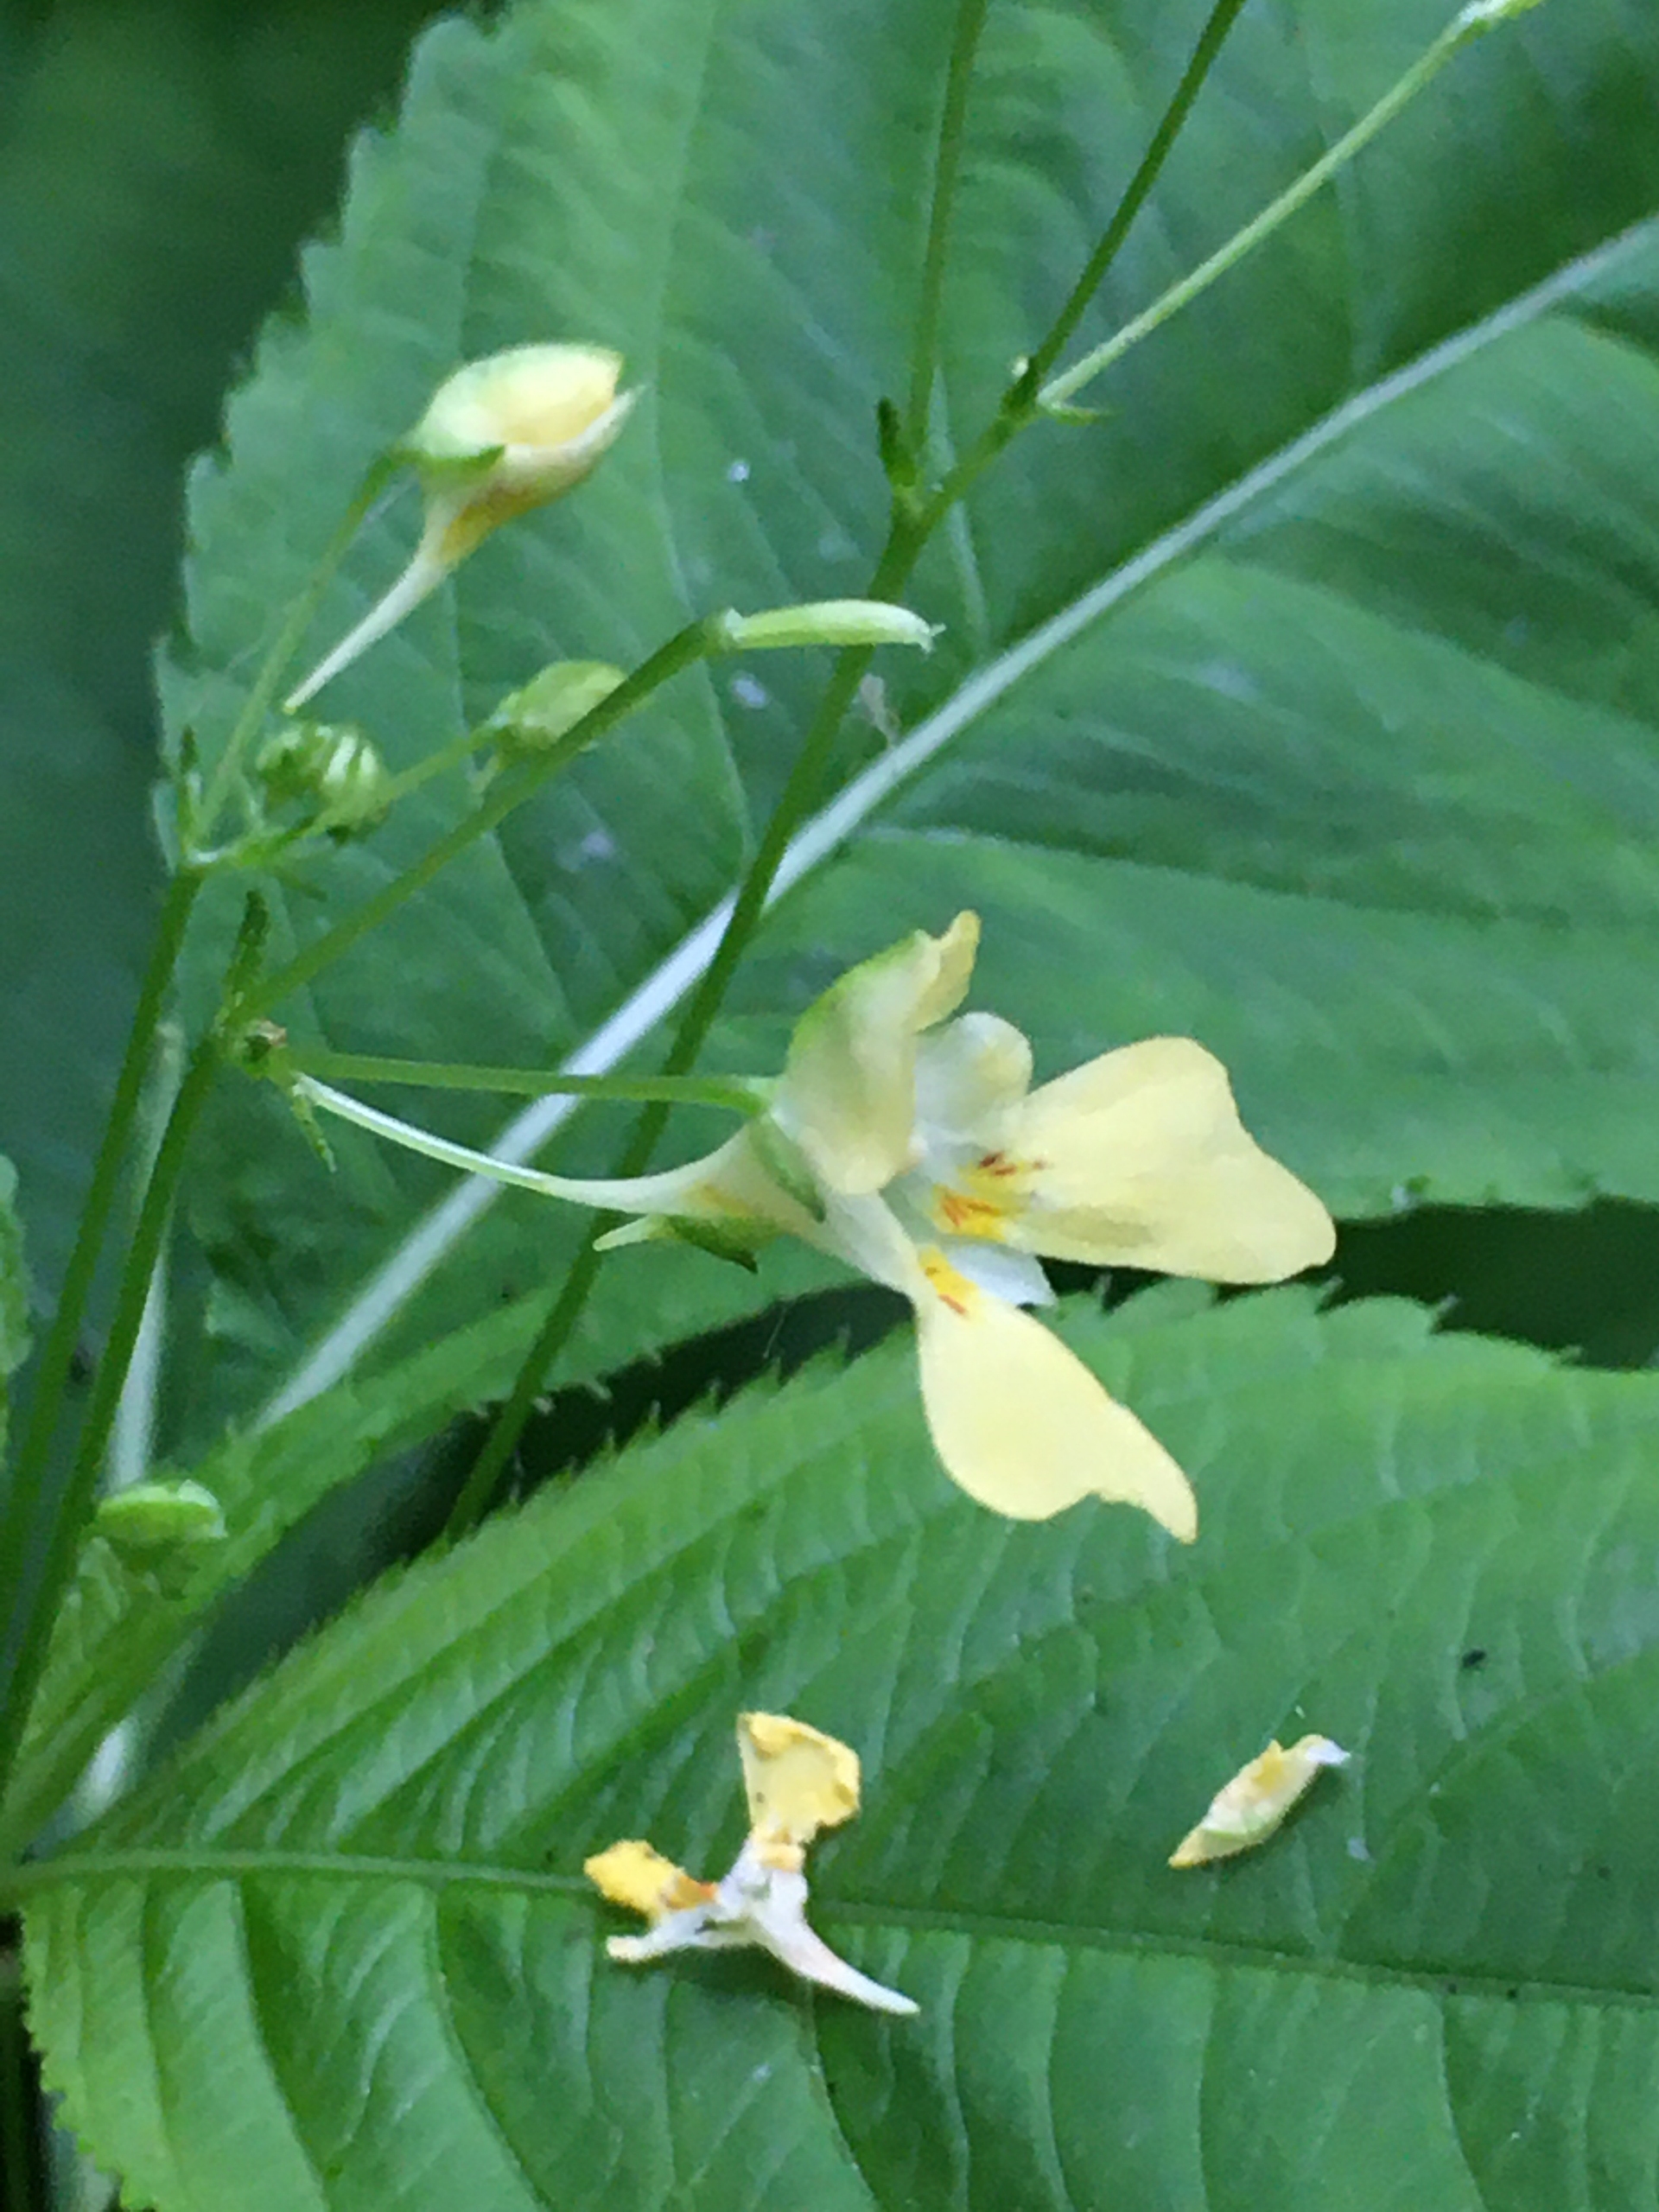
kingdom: Plantae
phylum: Tracheophyta
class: Magnoliopsida
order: Ericales
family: Balsaminaceae
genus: Impatiens
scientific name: Impatiens parviflora
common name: Småblomstret balsamin
